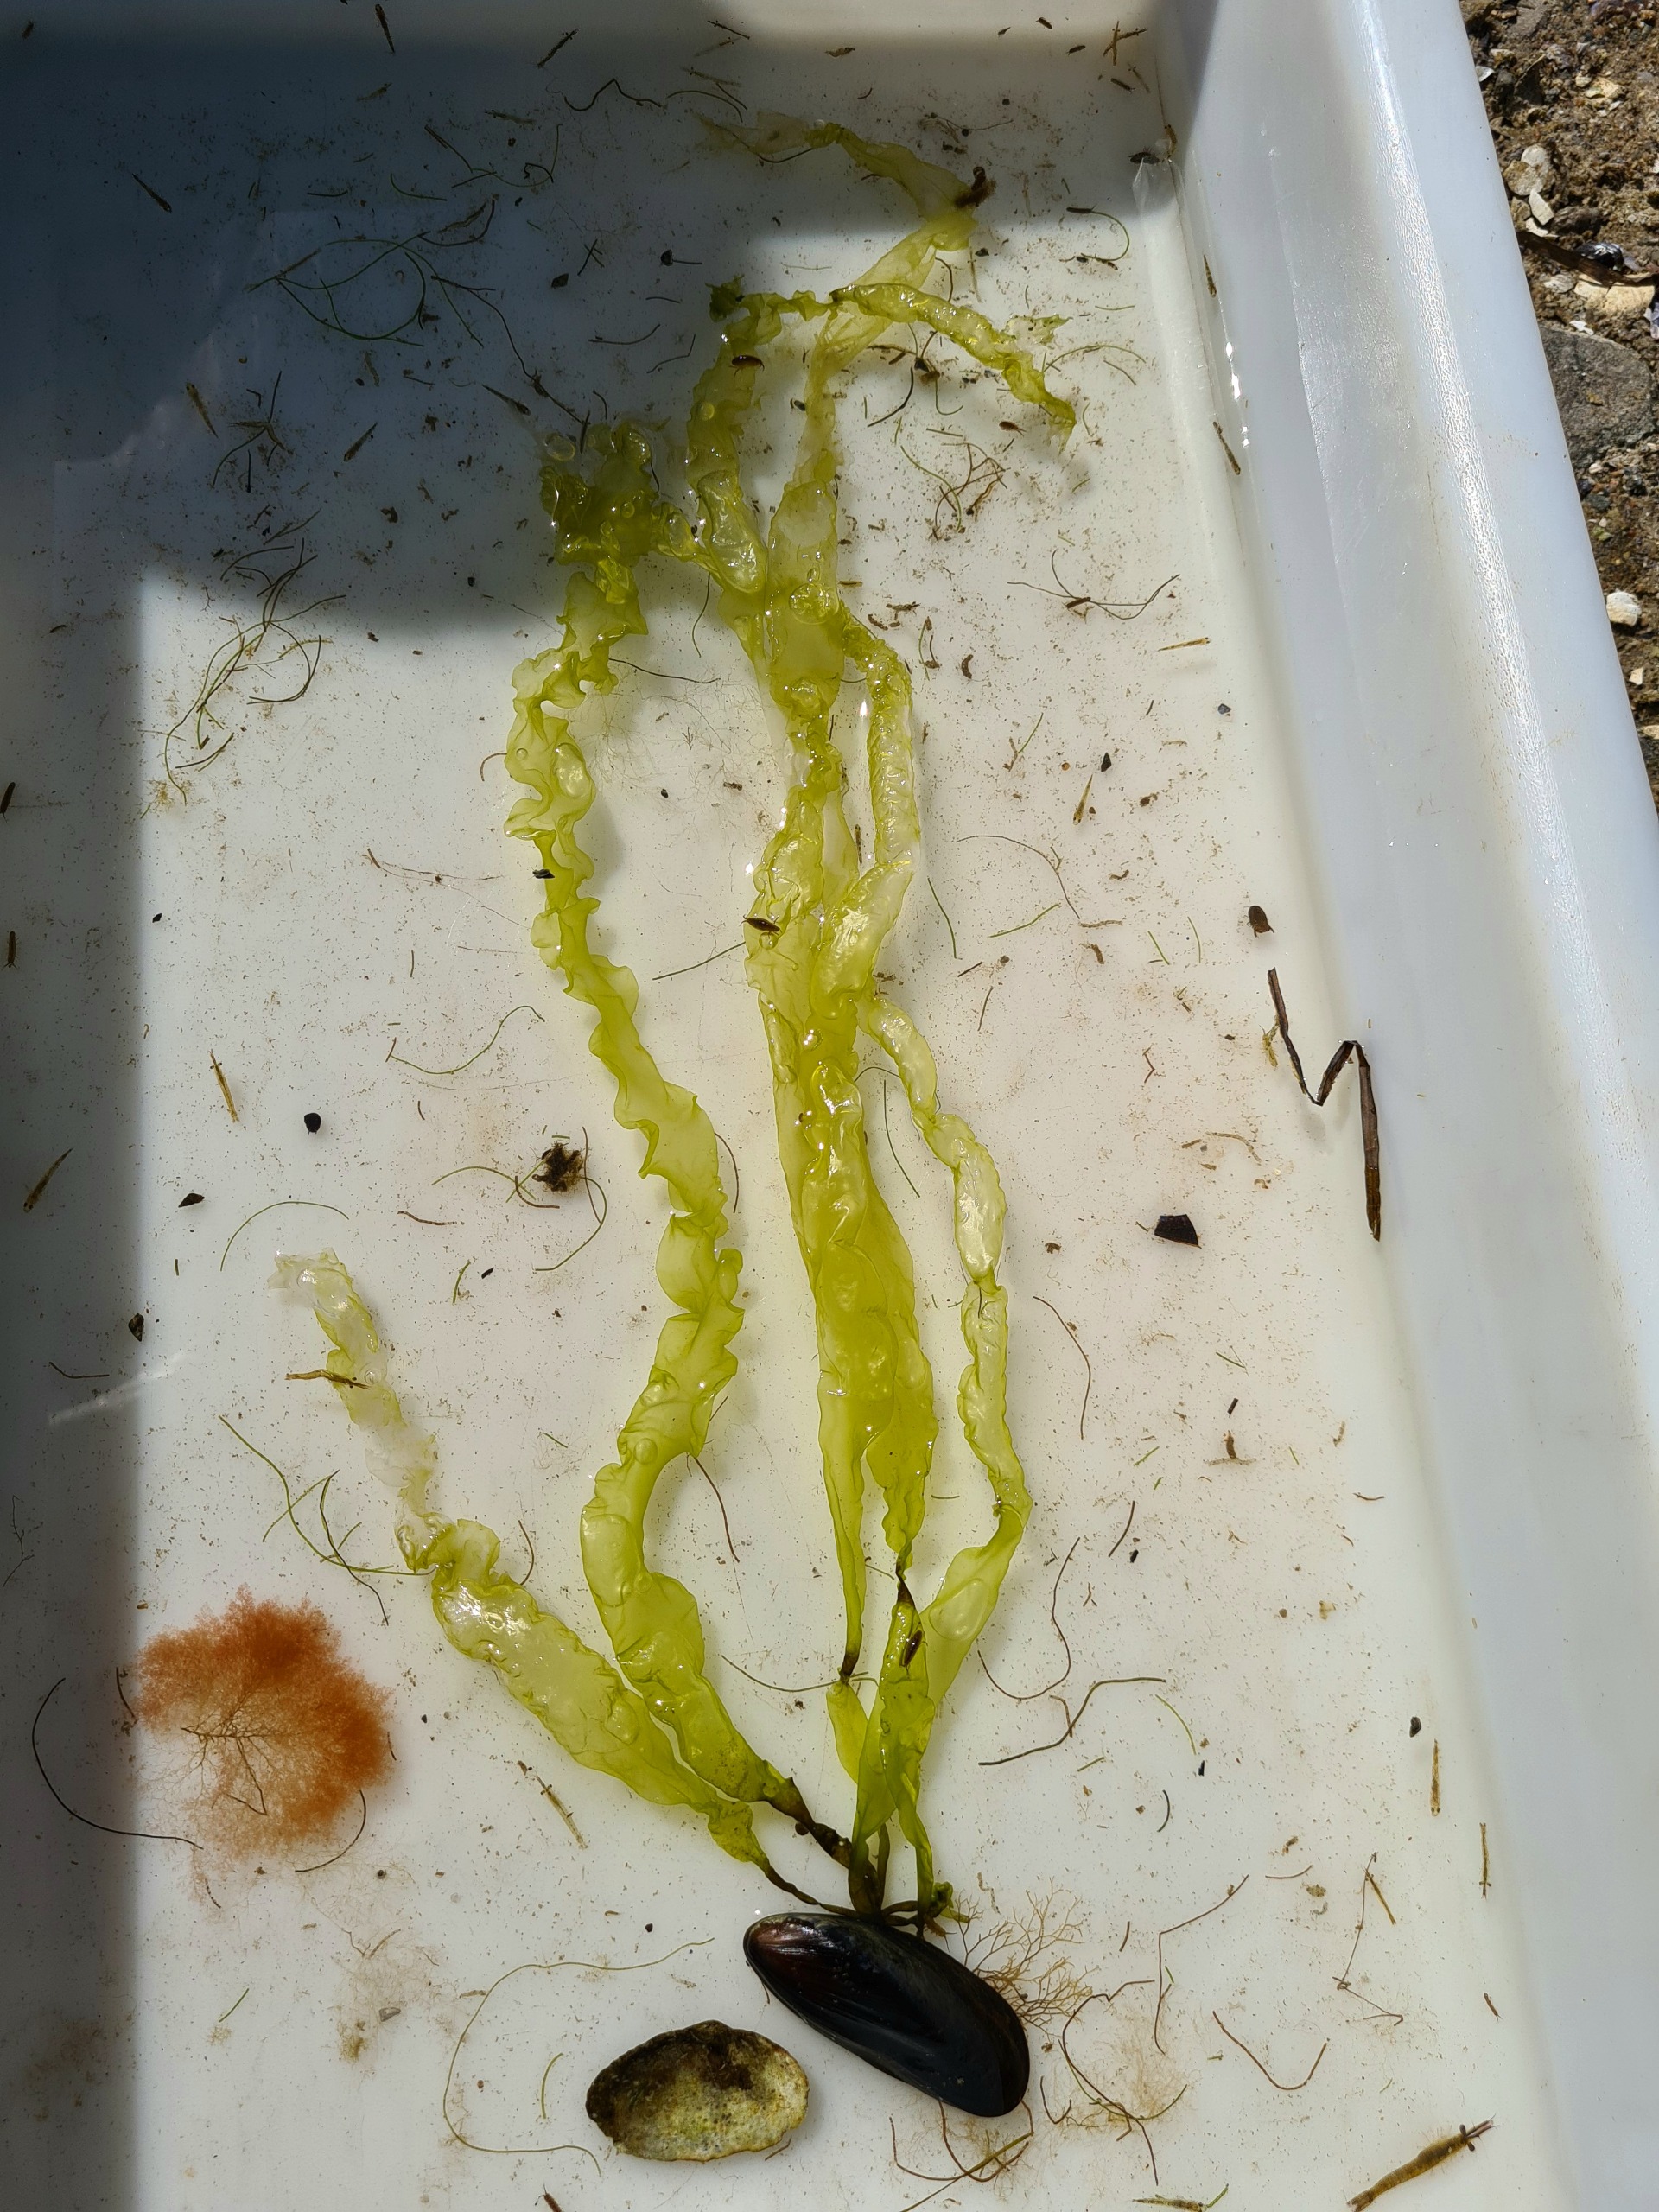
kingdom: Plantae
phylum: Chlorophyta
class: Ulvophyceae
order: Ulvales
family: Ulvaceae
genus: Ulva
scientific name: Ulva intestinalis
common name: Tarm-rørhinde
